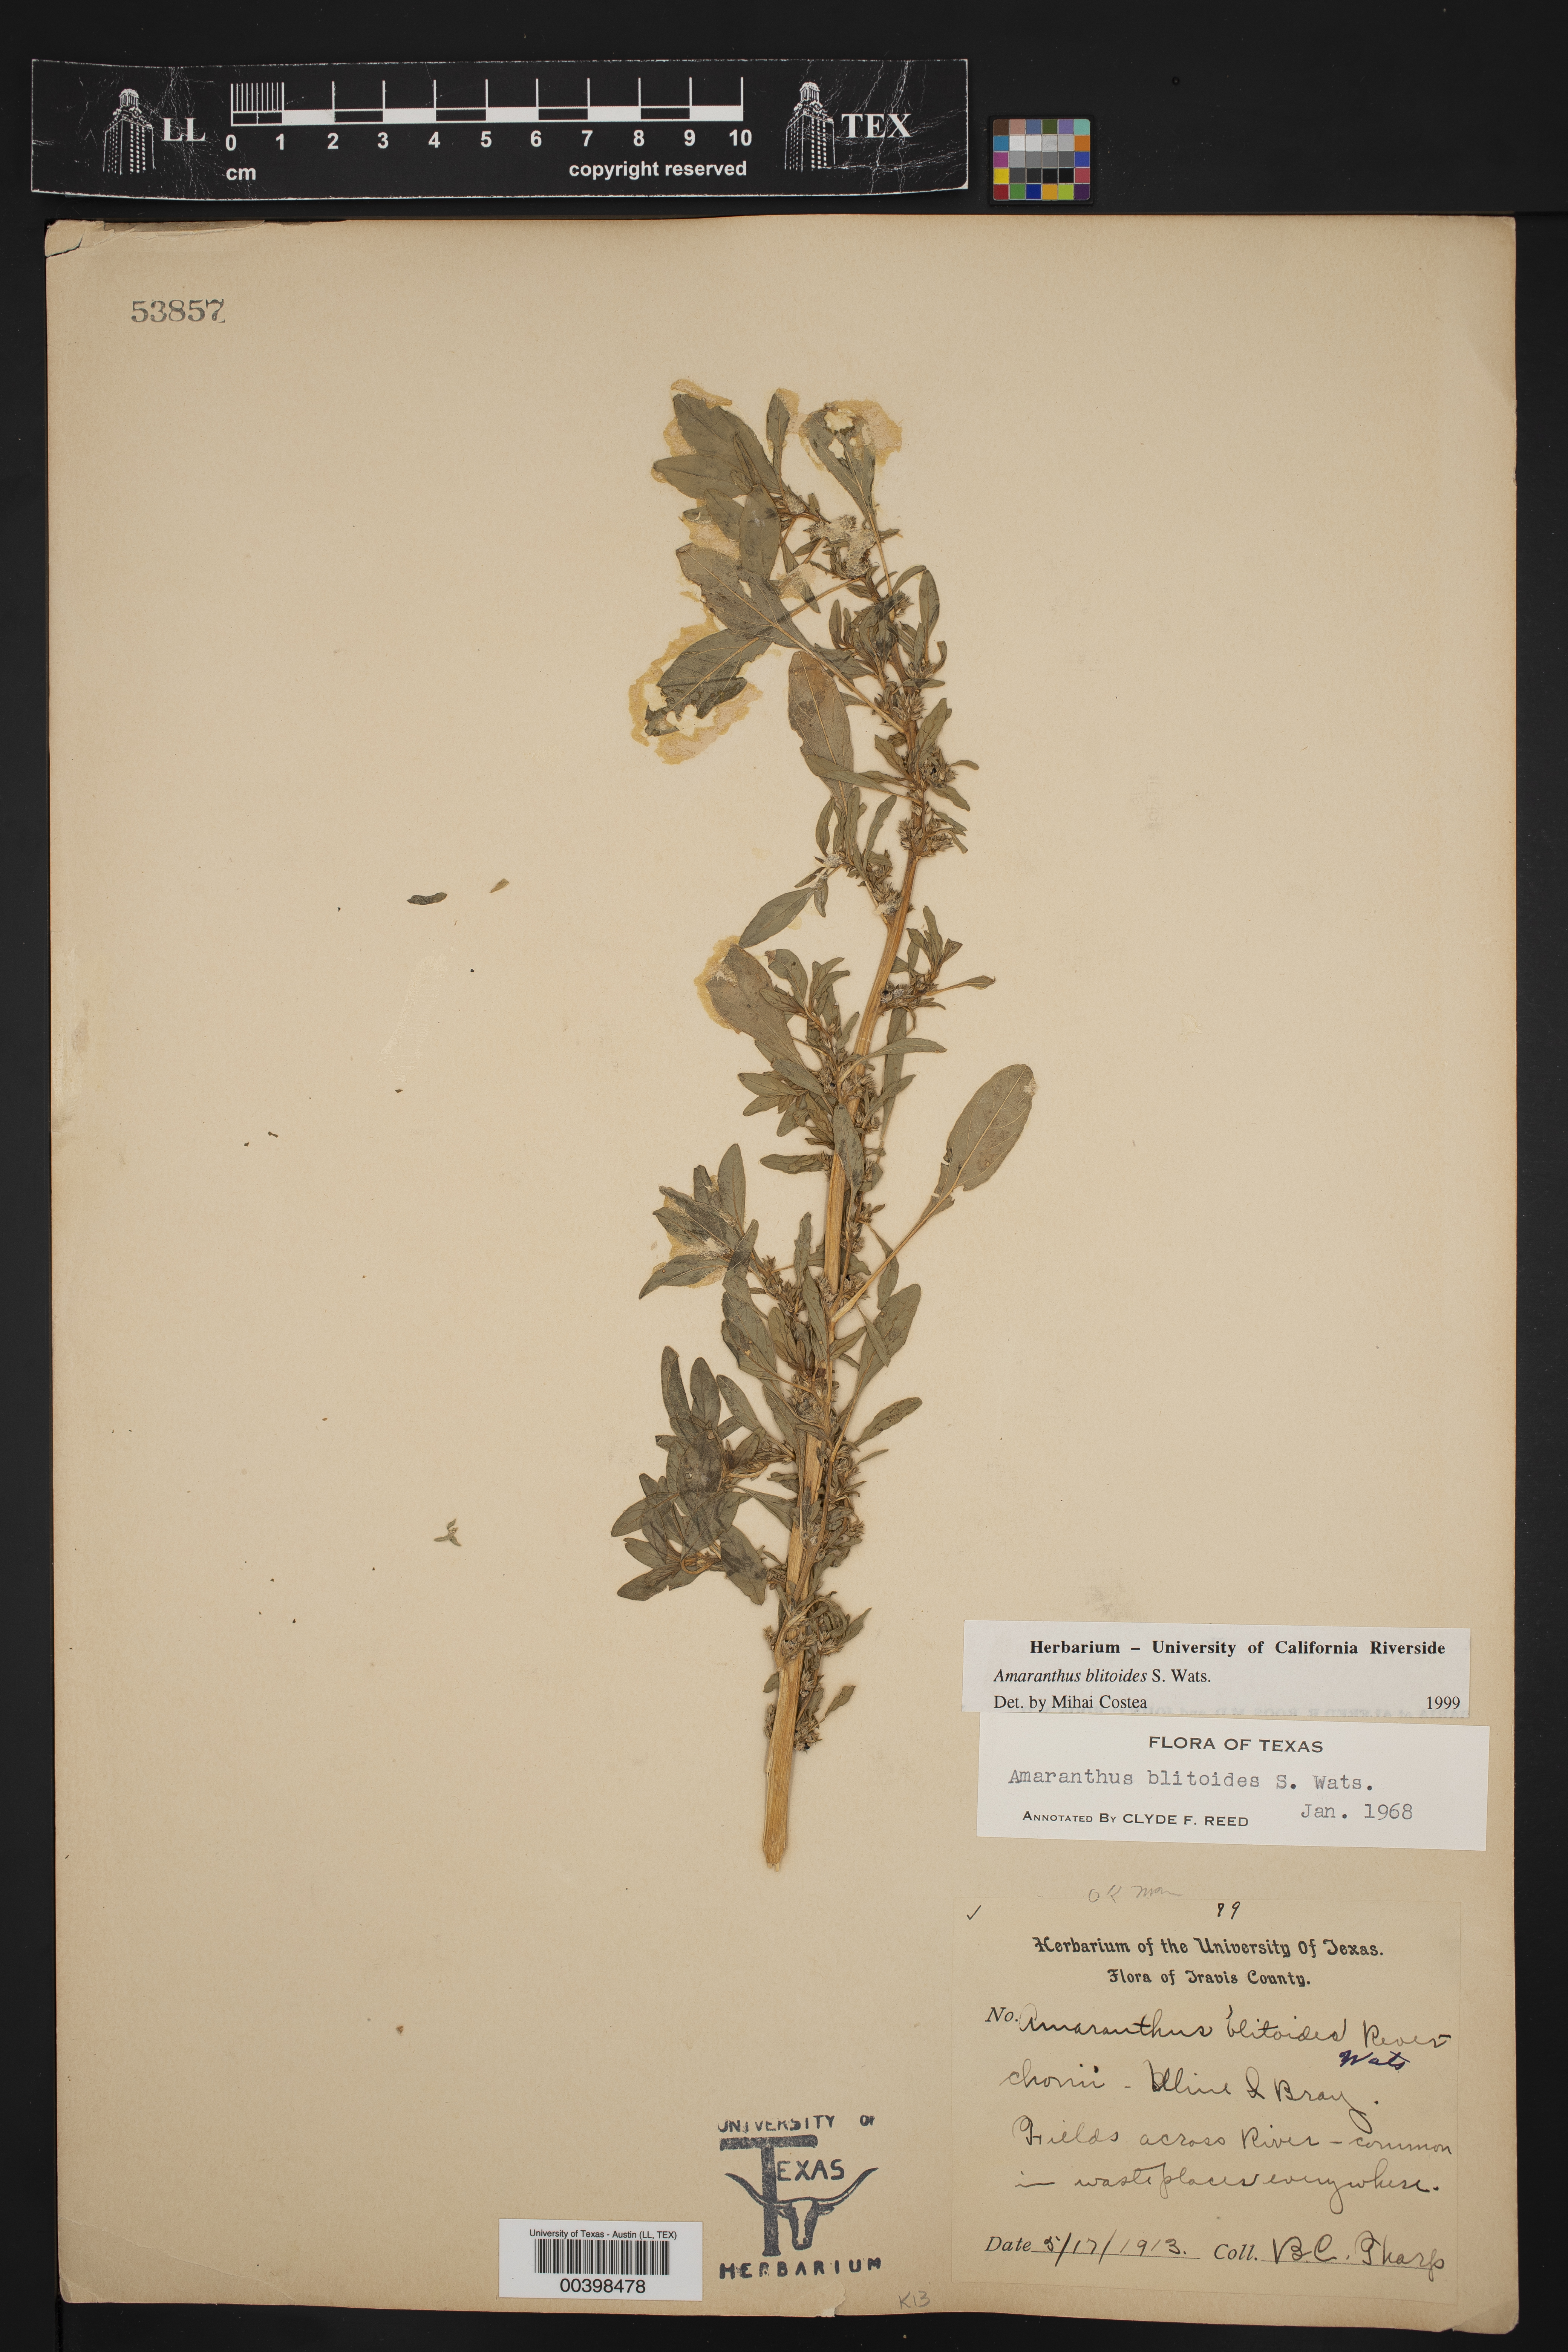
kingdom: Plantae
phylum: Tracheophyta
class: Magnoliopsida
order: Caryophyllales
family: Amaranthaceae
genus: Amaranthus
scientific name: Amaranthus blitoides
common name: Prostrate pigweed
